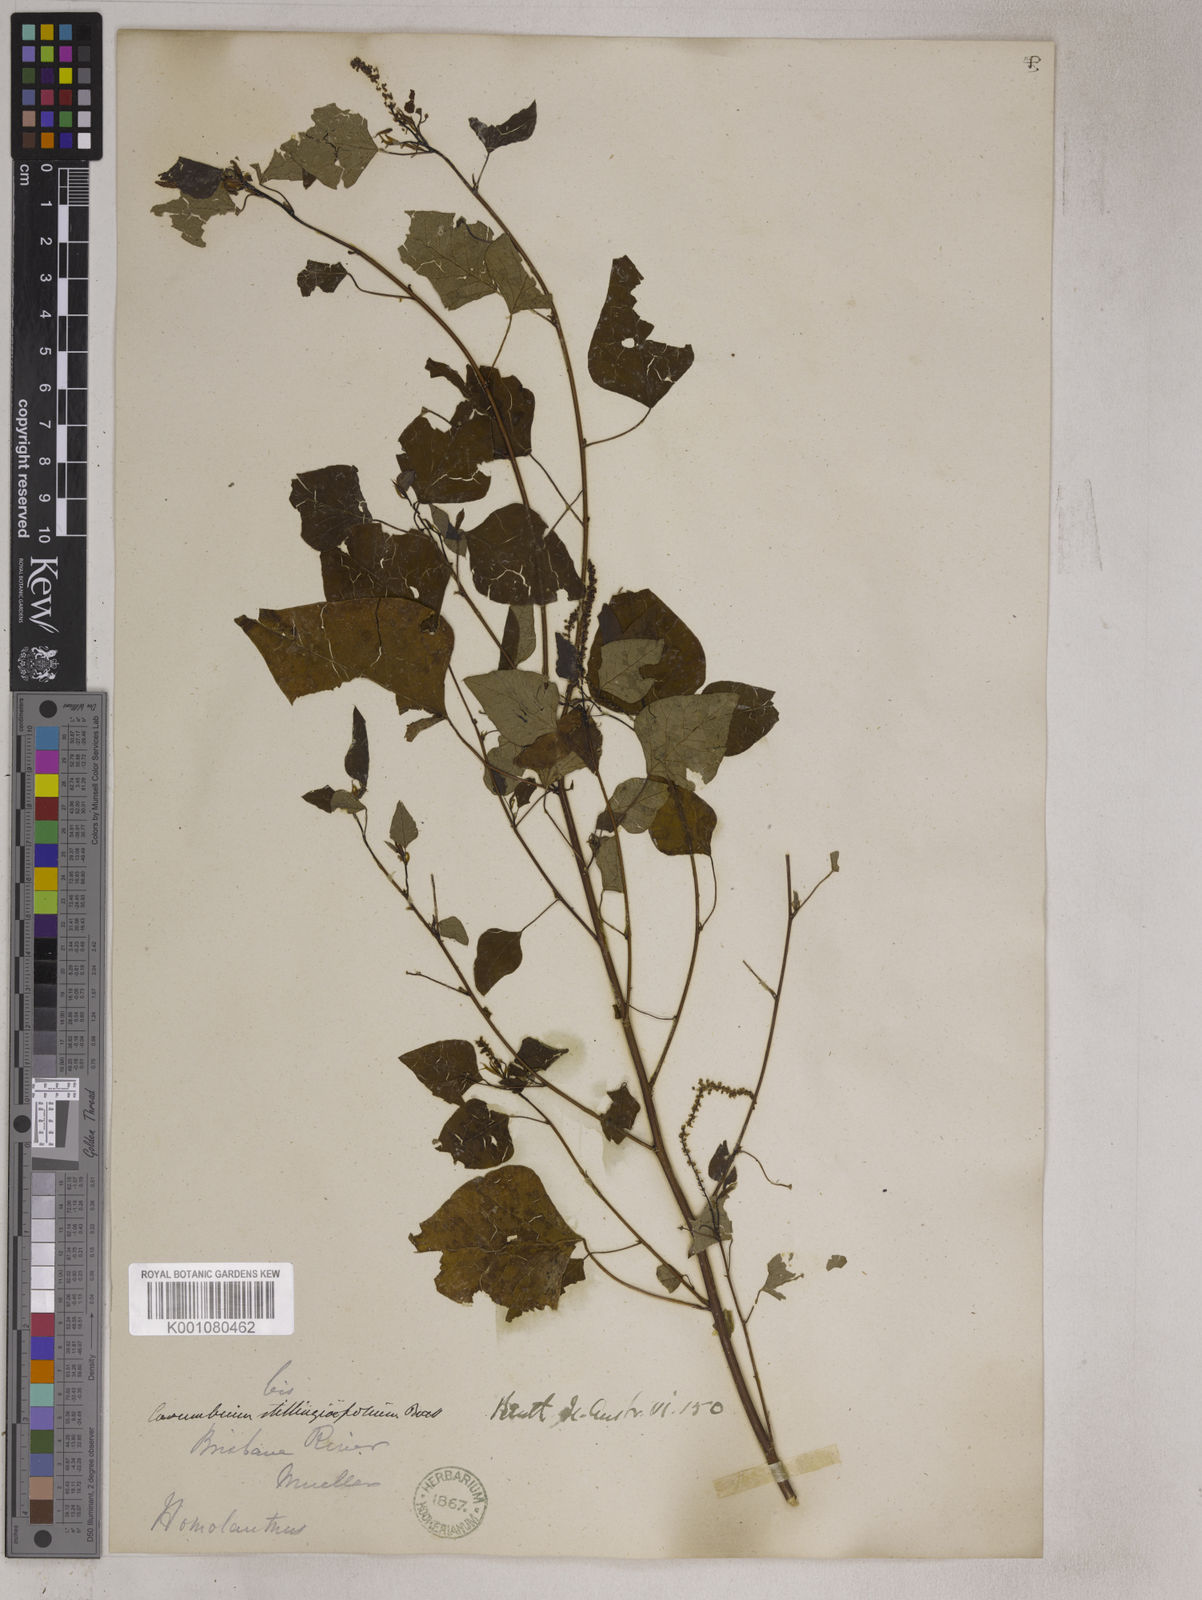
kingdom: Plantae
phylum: Tracheophyta
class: Magnoliopsida
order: Malpighiales
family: Euphorbiaceae
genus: Homalanthus
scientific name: Homalanthus stillingifolius
